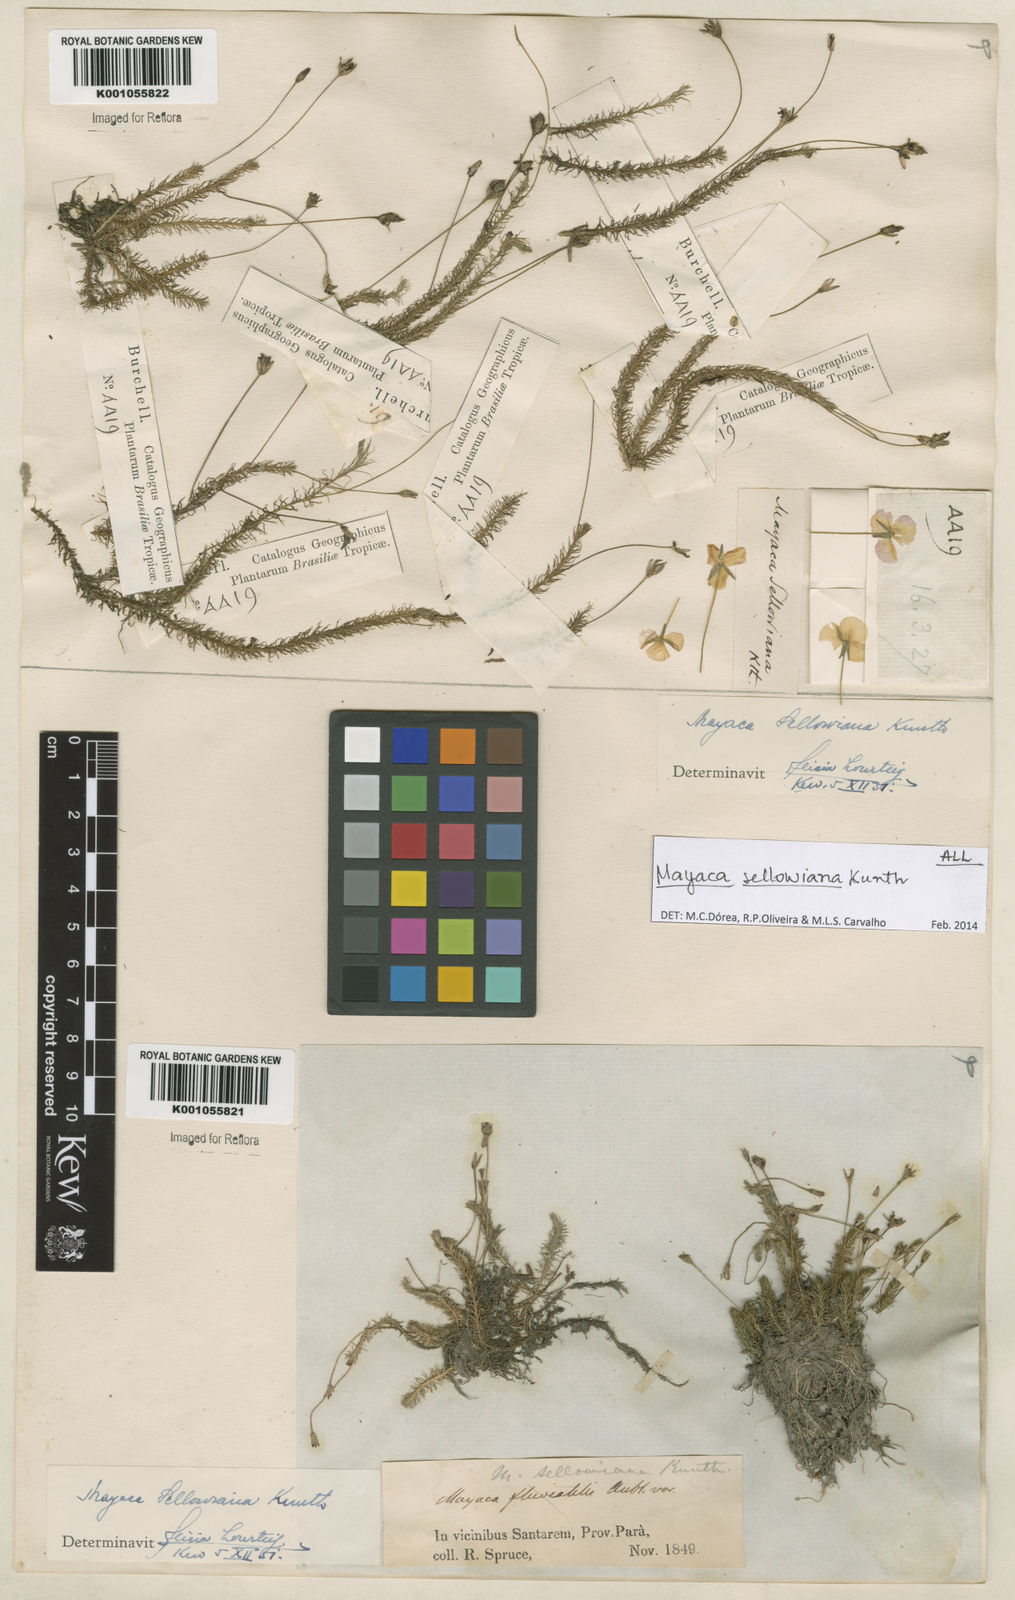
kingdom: Plantae
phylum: Tracheophyta
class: Liliopsida
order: Poales
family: Mayacaceae
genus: Mayaca
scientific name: Mayaca sellowiana
